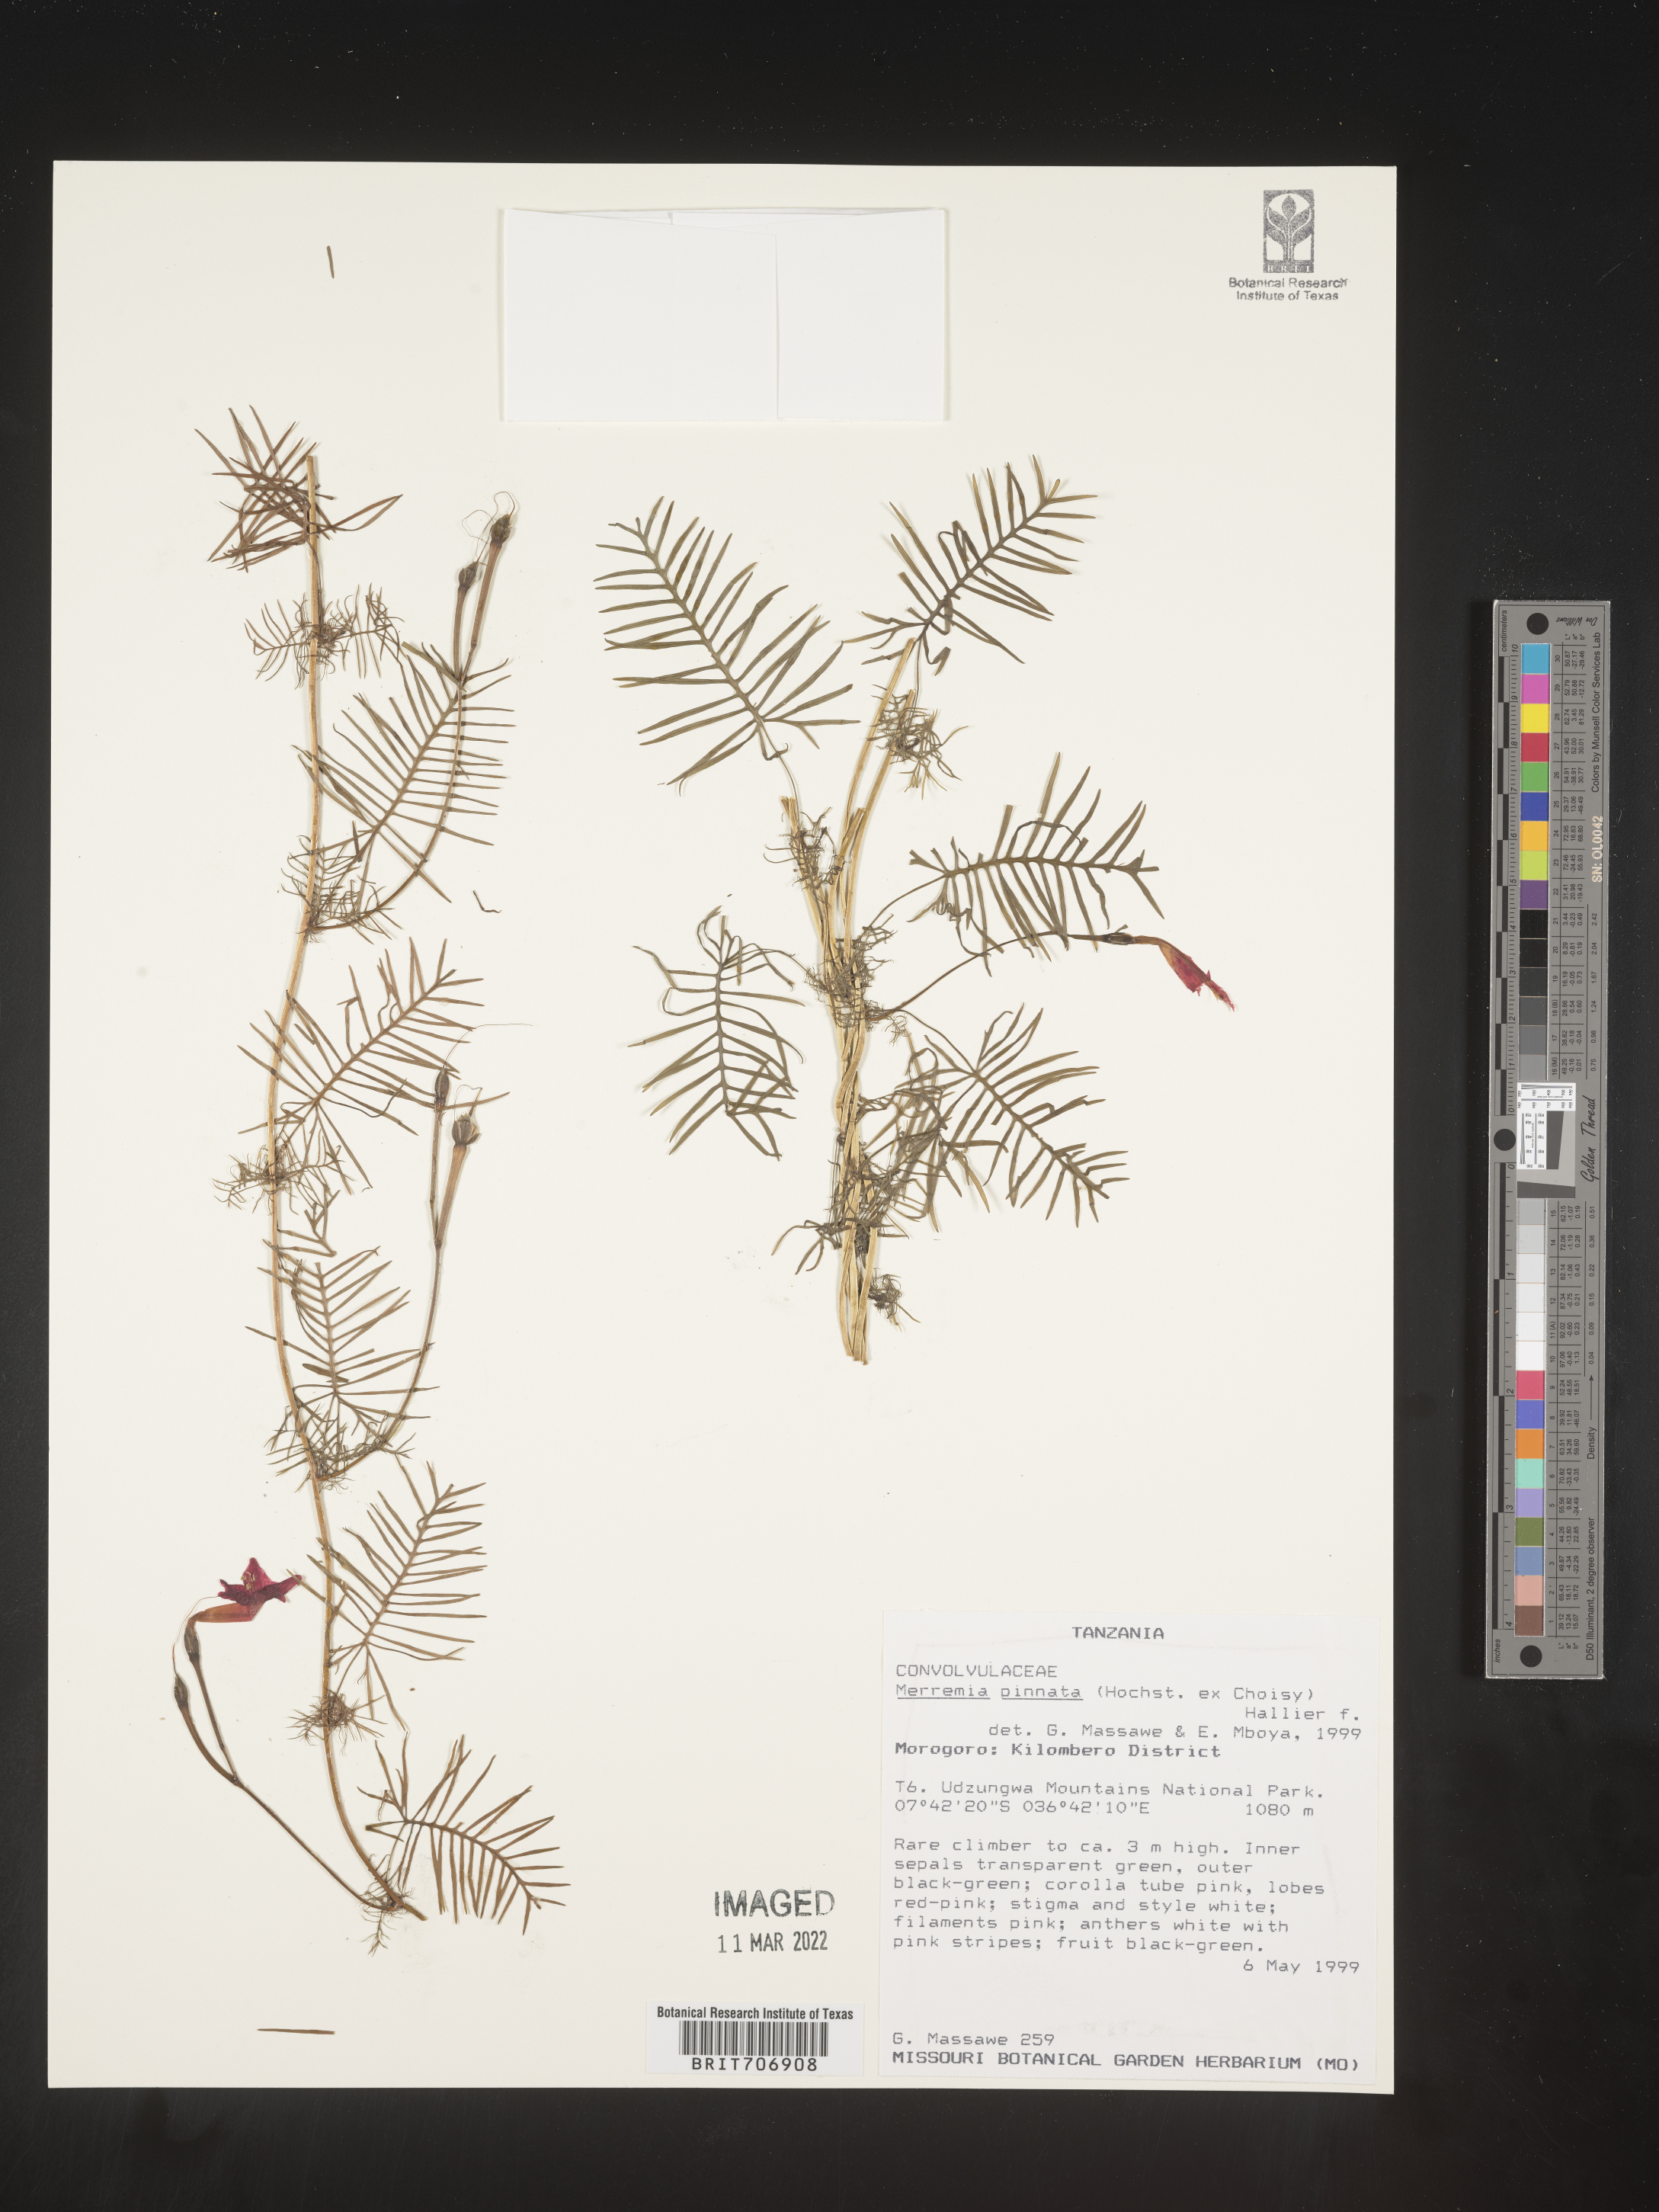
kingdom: Plantae
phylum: Tracheophyta
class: Magnoliopsida
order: Solanales
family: Convolvulaceae
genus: Merremia
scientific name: Merremia
